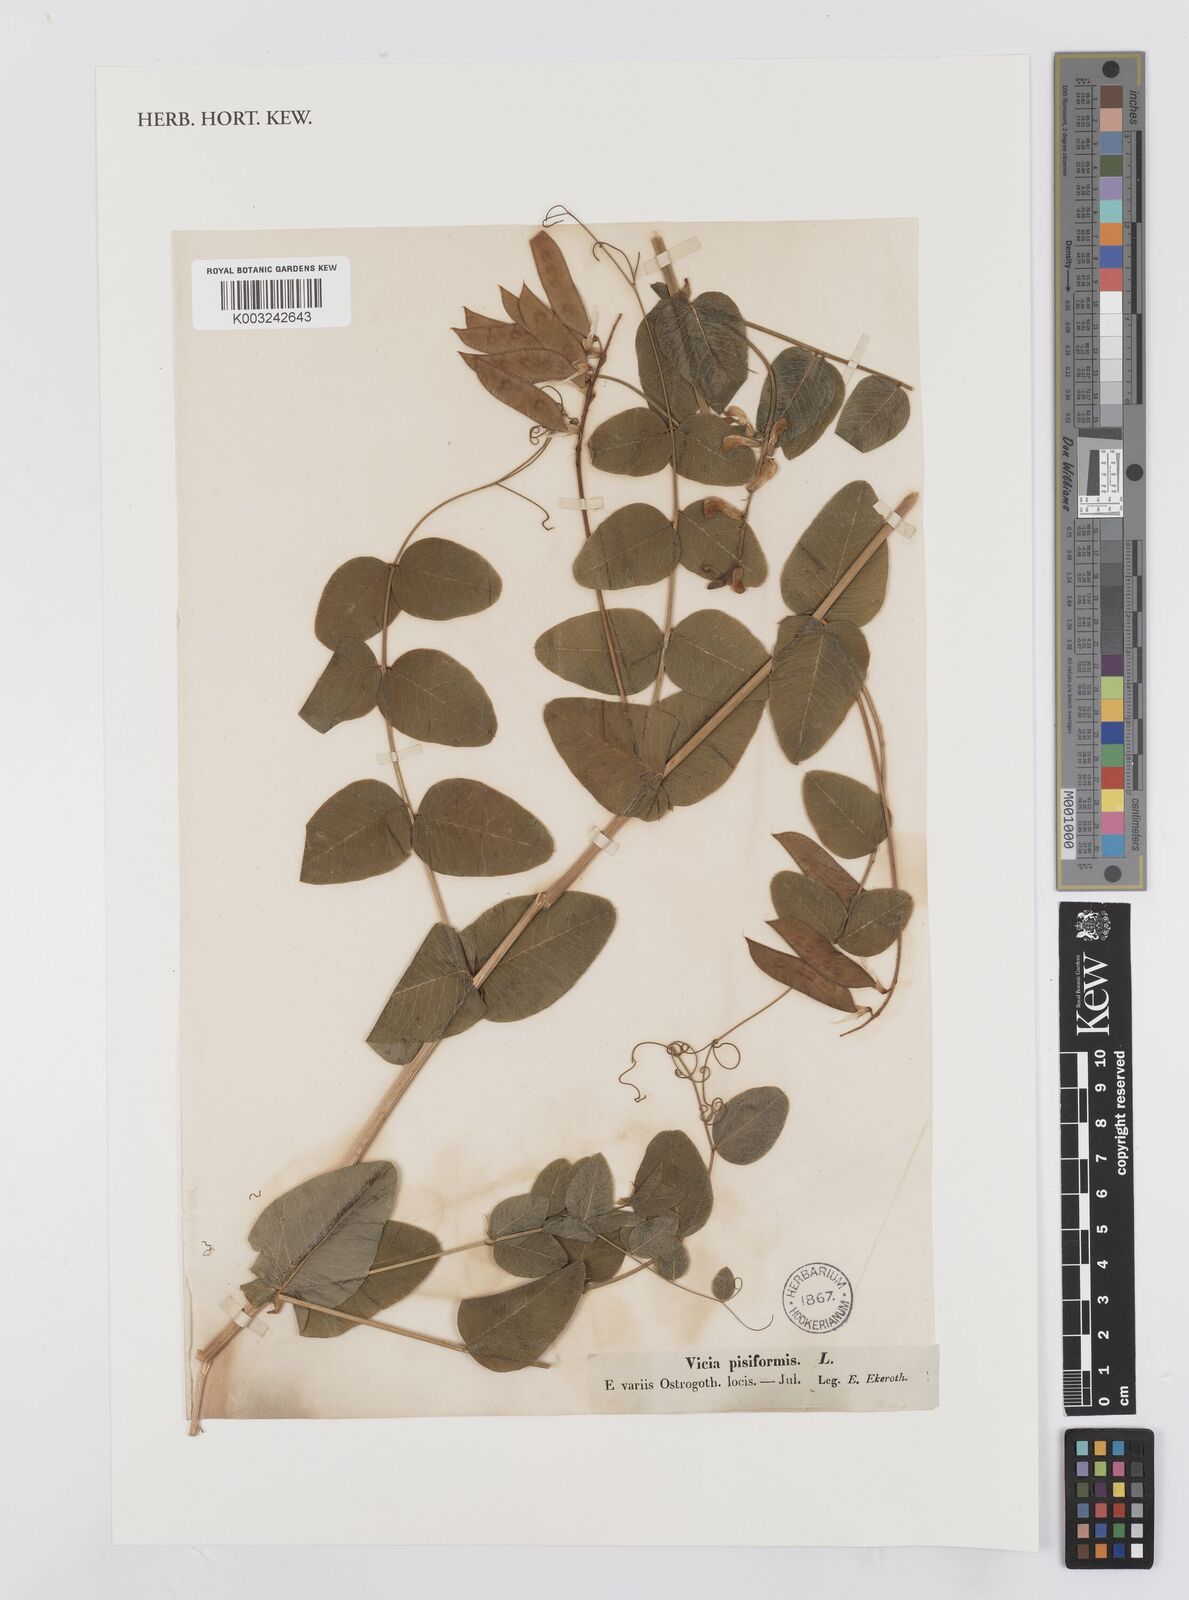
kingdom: Plantae
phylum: Tracheophyta
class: Magnoliopsida
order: Fabales
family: Fabaceae
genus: Vicia
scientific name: Vicia pisiformis
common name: Pale-flower vetch
